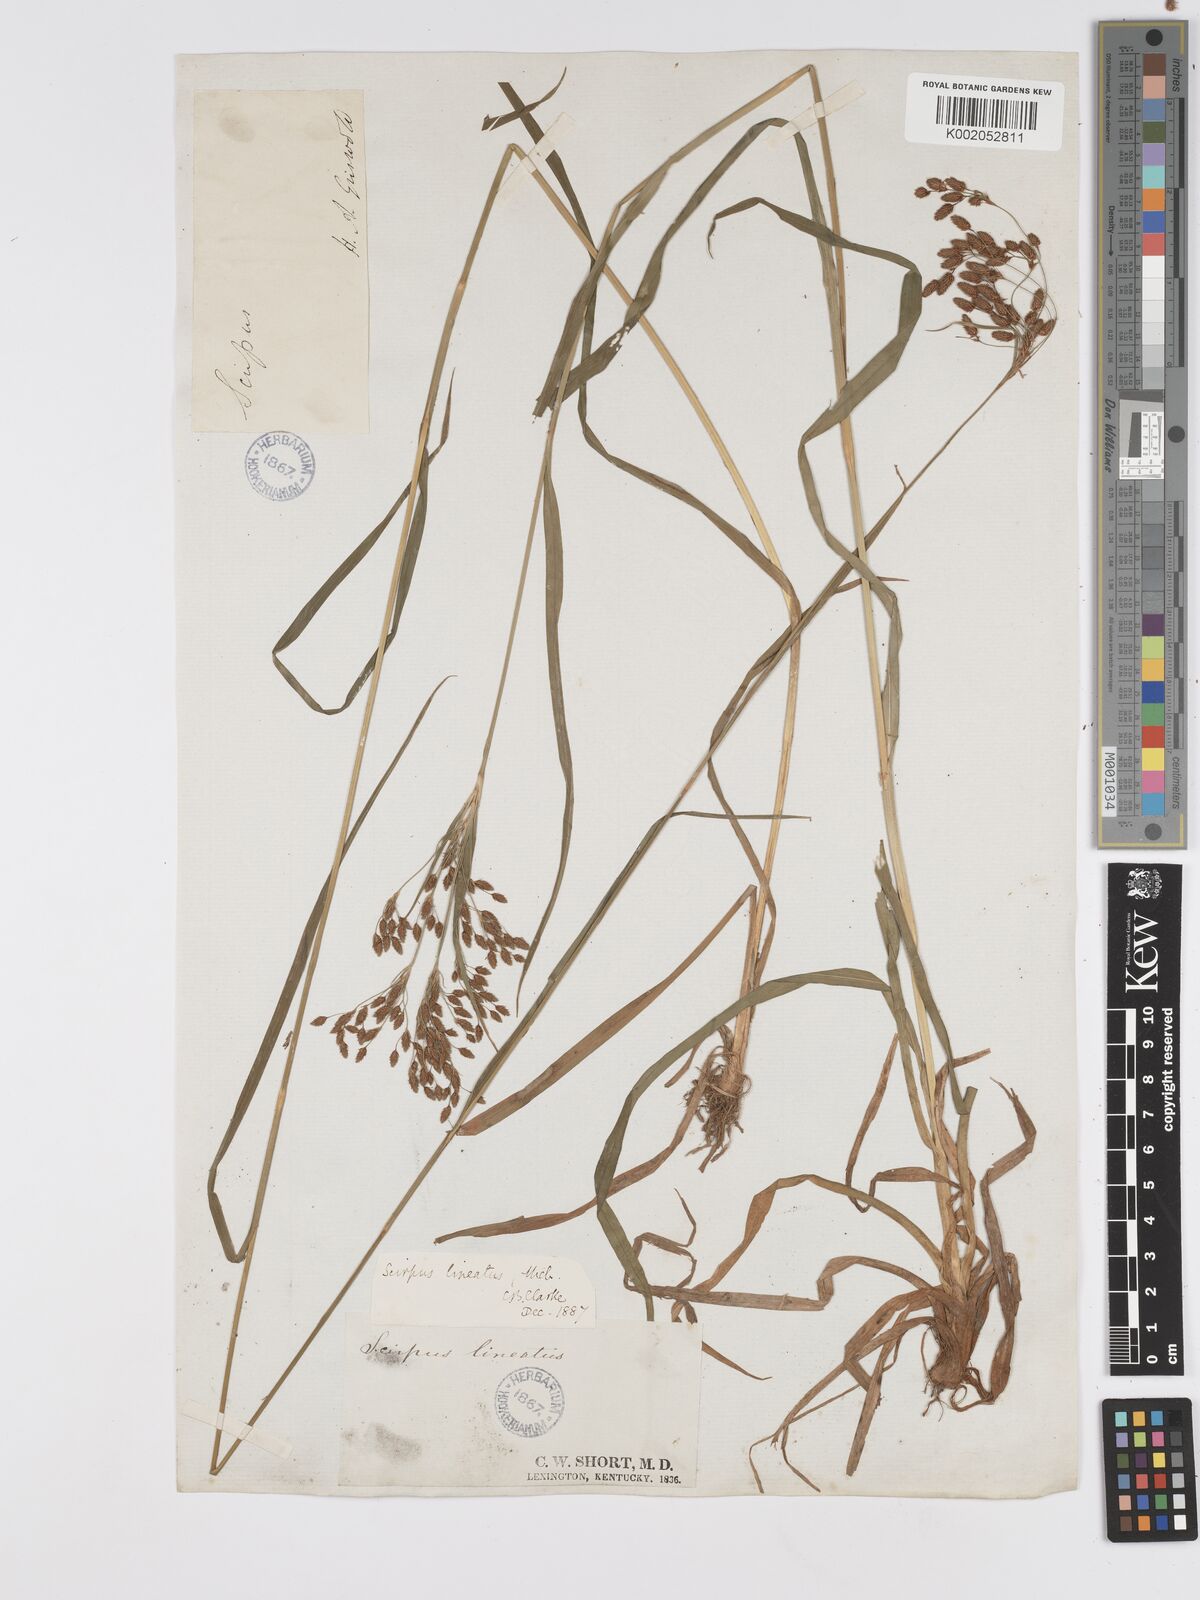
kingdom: Plantae
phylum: Tracheophyta
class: Liliopsida
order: Poales
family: Cyperaceae
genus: Scirpus
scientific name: Scirpus lineatus
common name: Drooping bulrush
